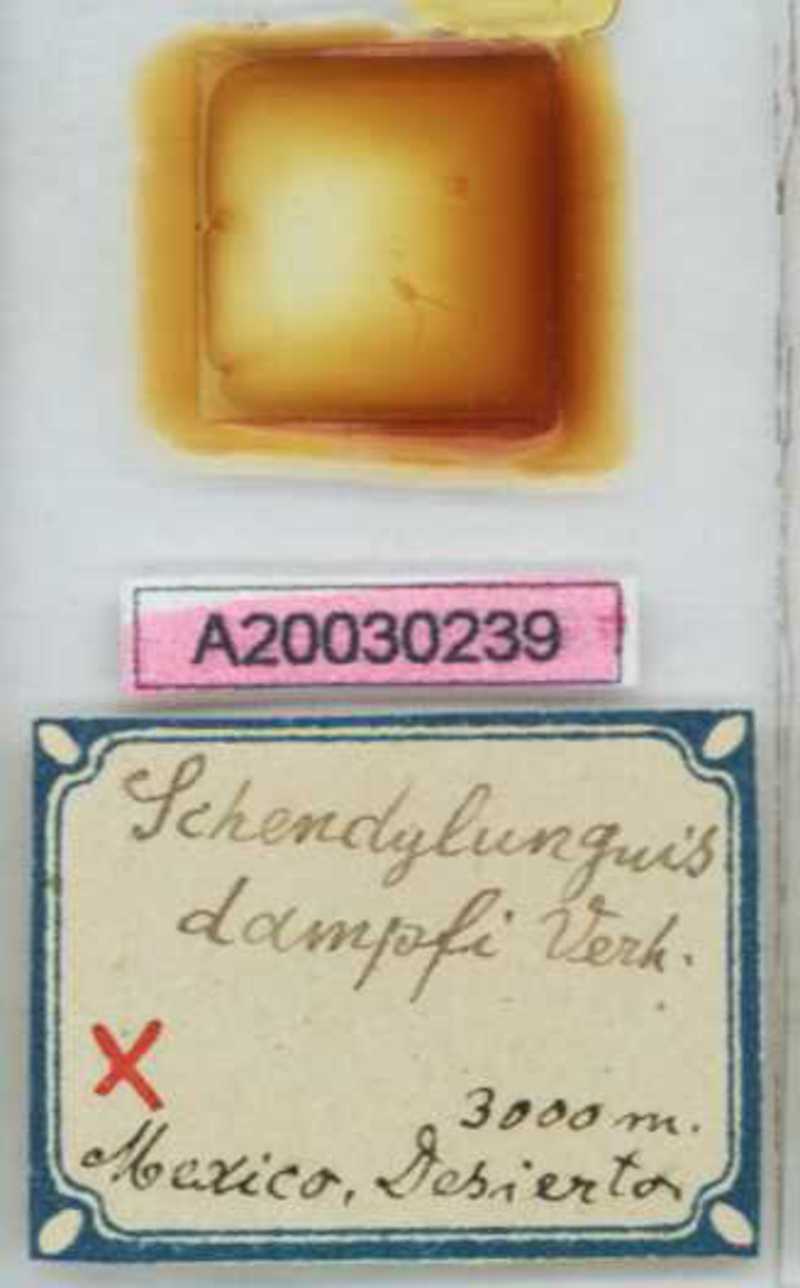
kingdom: Animalia
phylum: Arthropoda
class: Chilopoda
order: Geophilomorpha
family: Schendylidae
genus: Schendylunguis
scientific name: Schendylunguis
